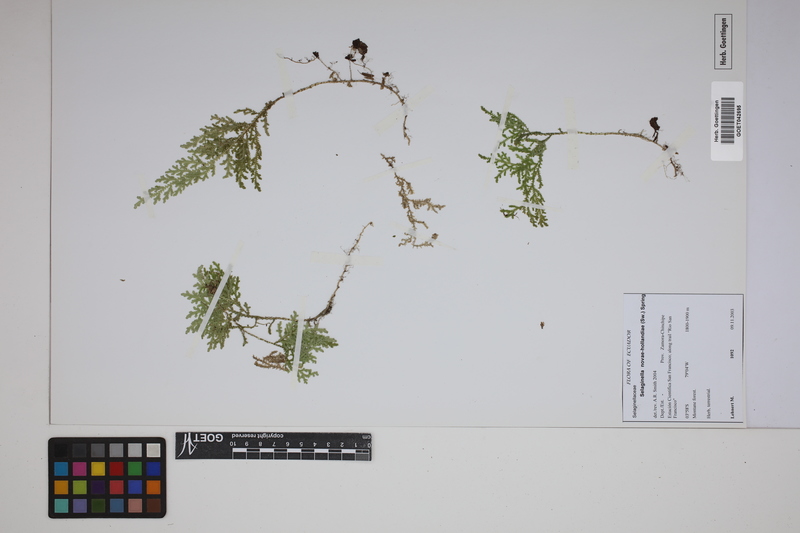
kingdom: Plantae
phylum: Tracheophyta
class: Lycopodiopsida
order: Selaginellales
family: Selaginellaceae
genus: Selaginella
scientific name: Selaginella novae-hollandiae
